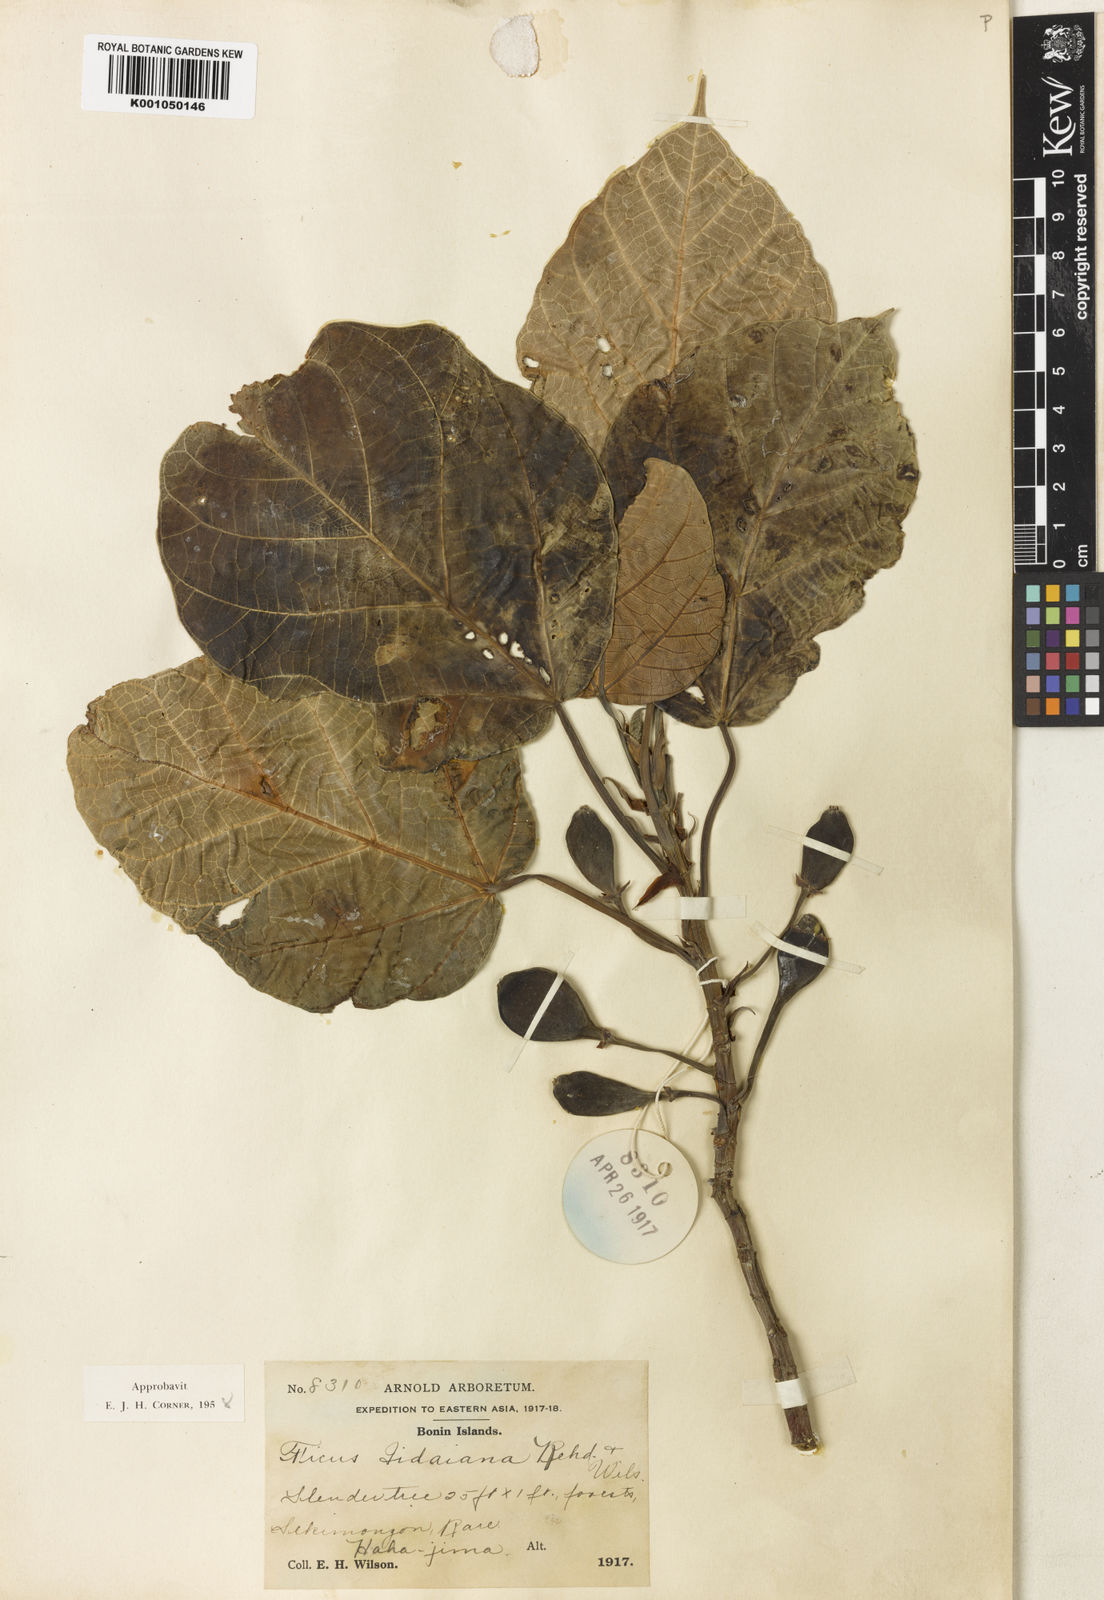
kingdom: Plantae
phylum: Tracheophyta
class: Magnoliopsida
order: Rosales
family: Moraceae
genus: Ficus
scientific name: Ficus iidaiana
